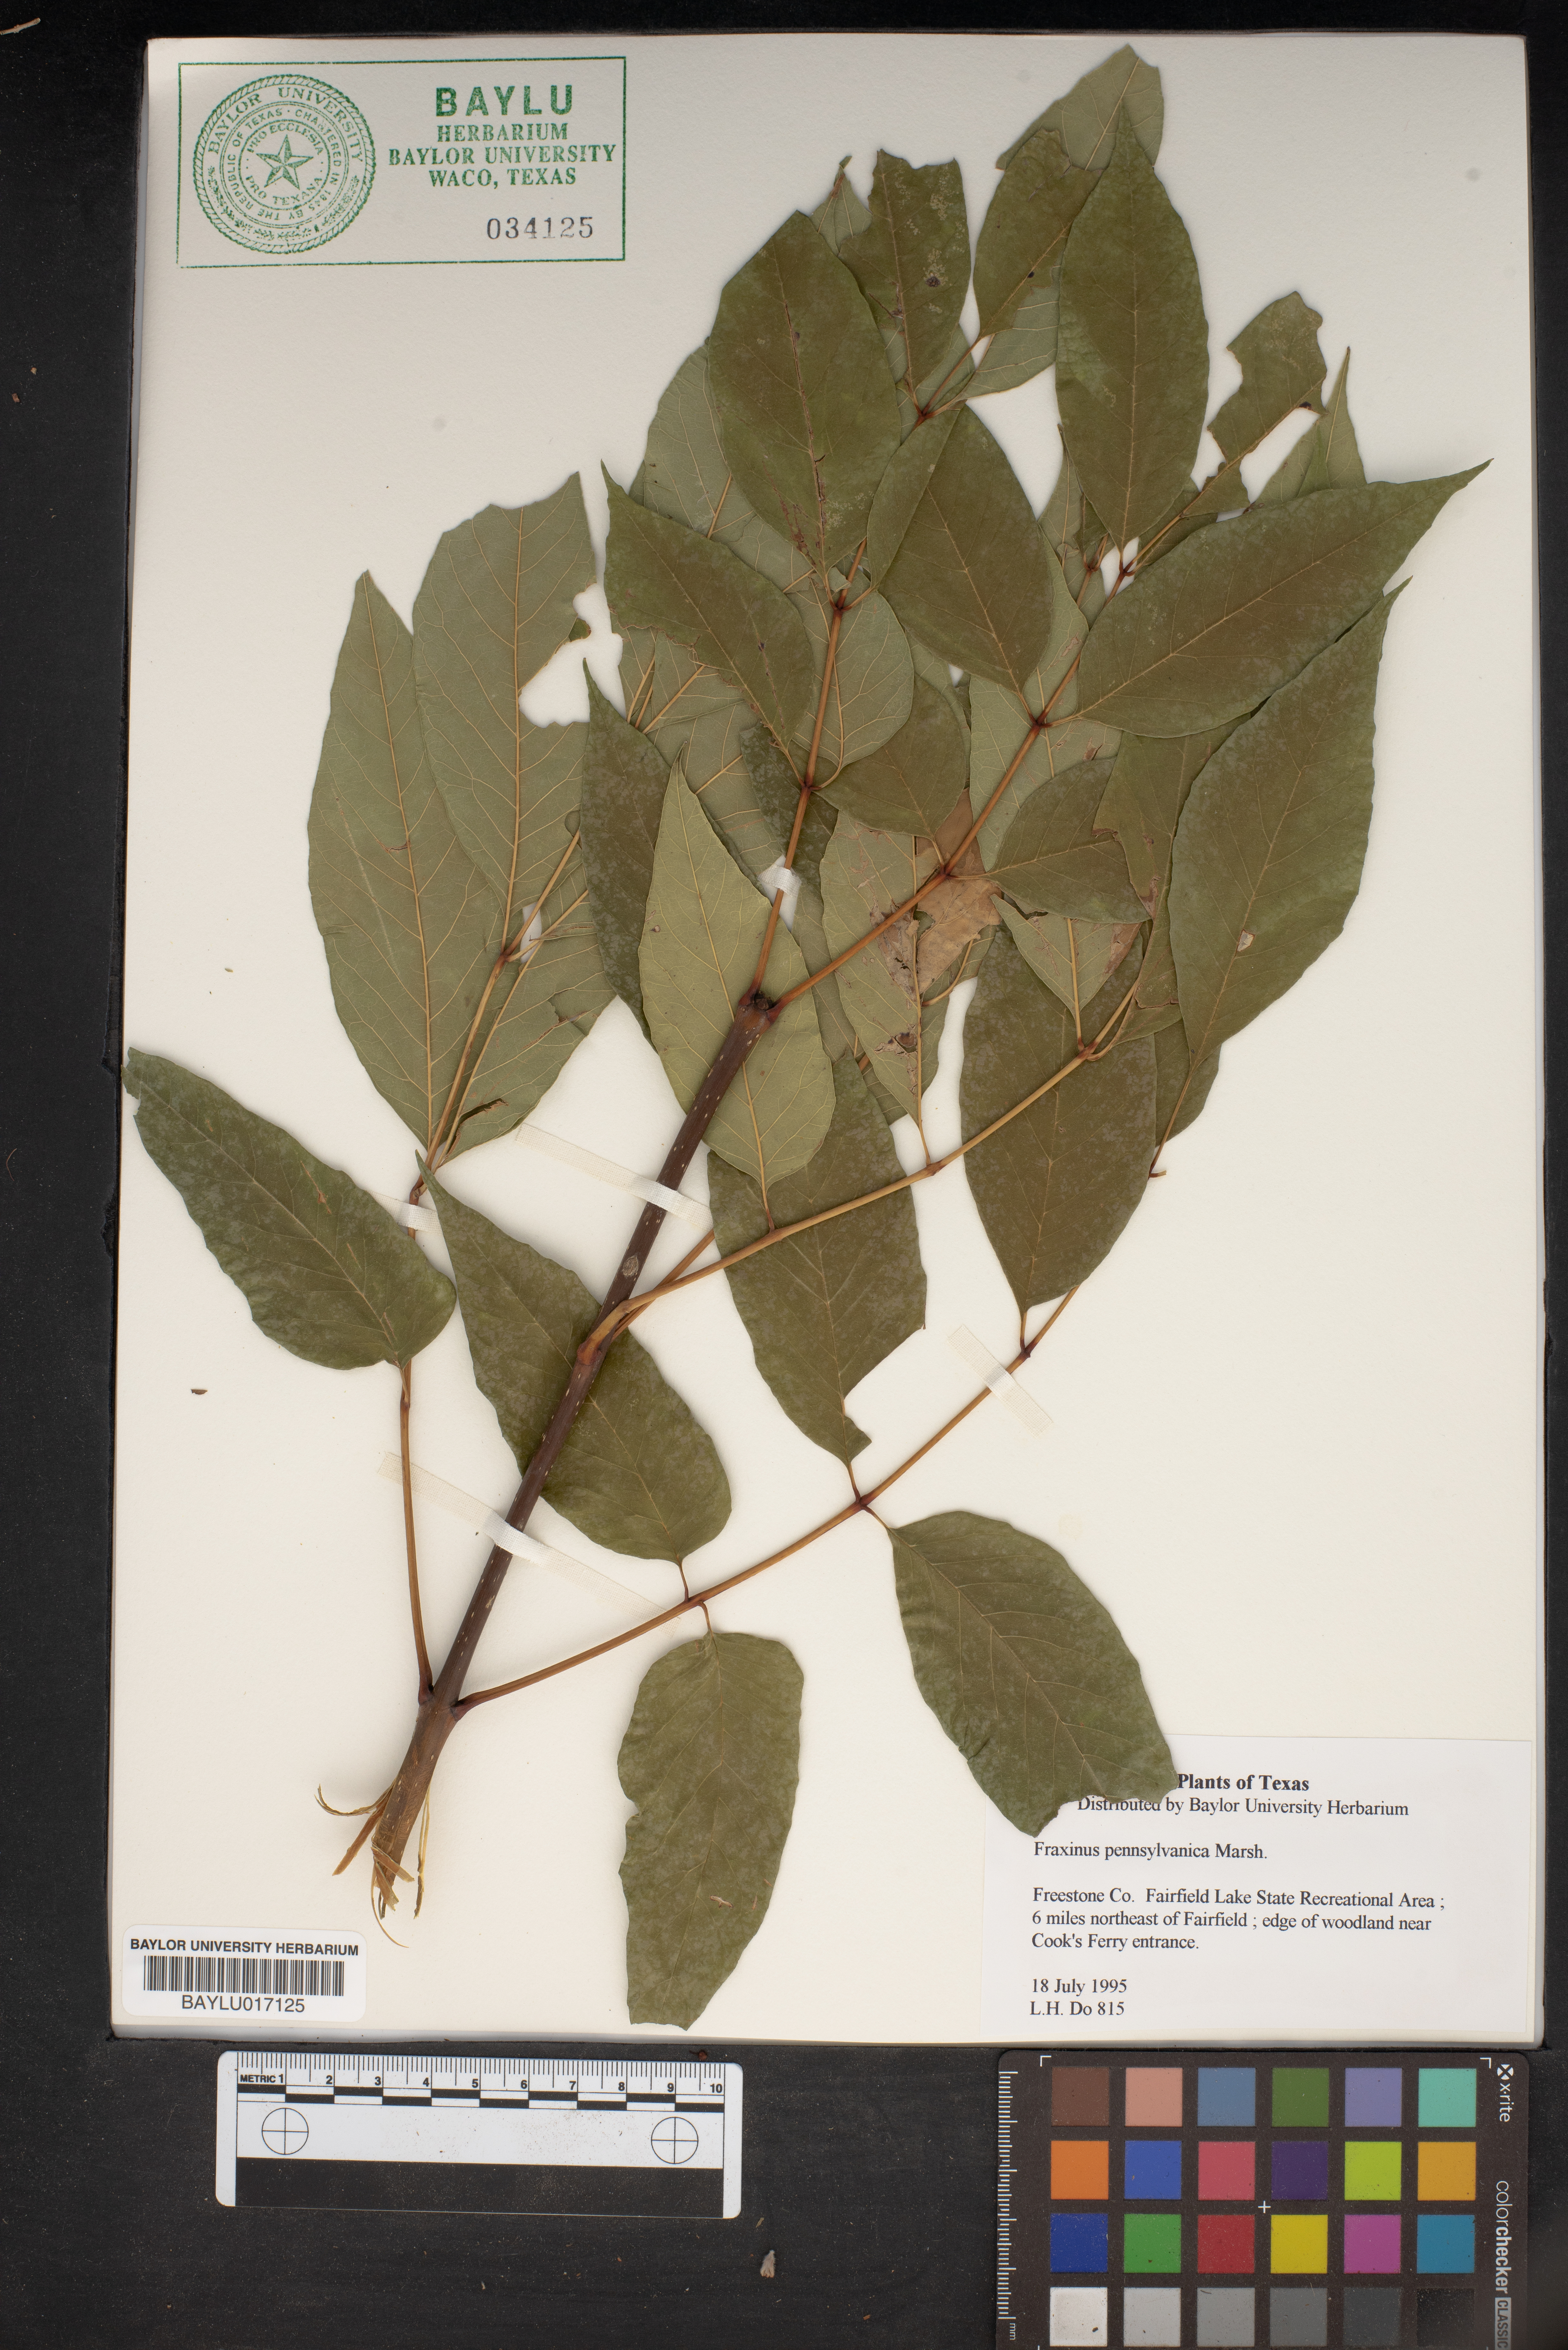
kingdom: Plantae
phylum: Tracheophyta
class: Magnoliopsida
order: Lamiales
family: Oleaceae
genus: Fraxinus
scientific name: Fraxinus pennsylvanica
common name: Green ash
